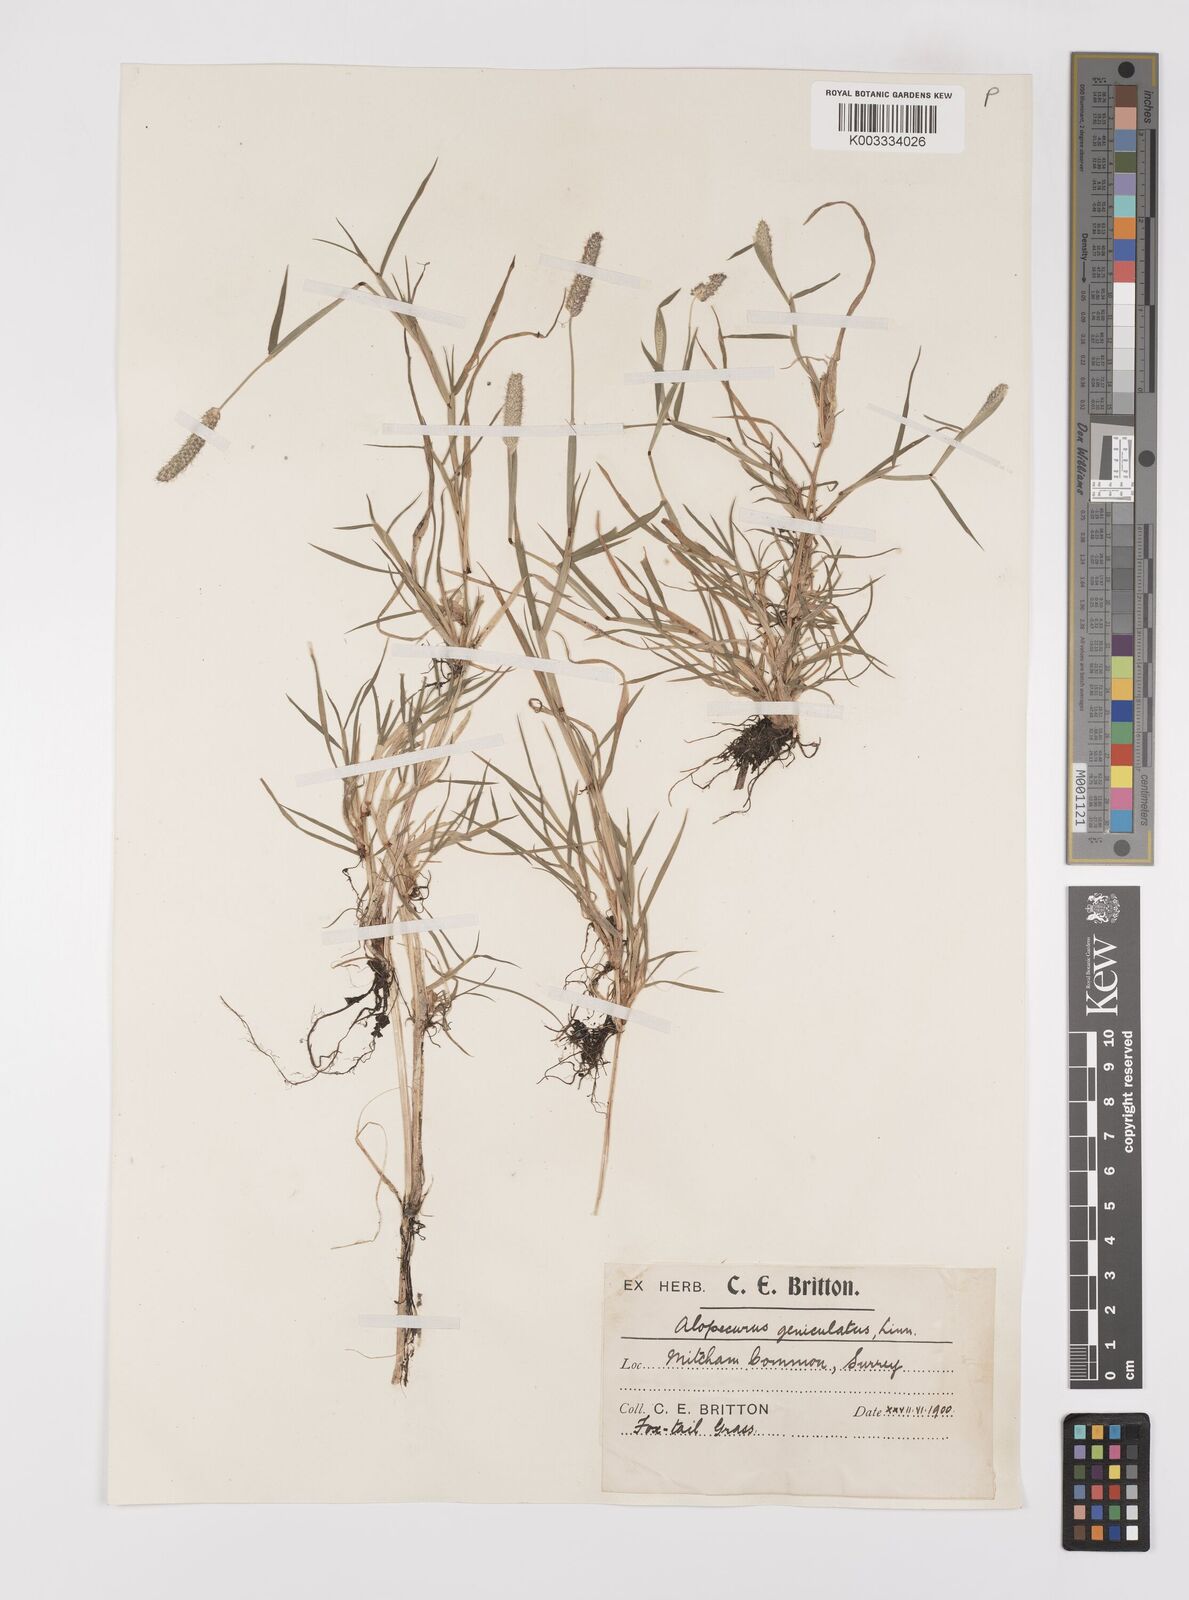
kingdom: Plantae
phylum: Tracheophyta
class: Liliopsida
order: Poales
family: Poaceae
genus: Alopecurus
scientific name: Alopecurus geniculatus
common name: Water foxtail
